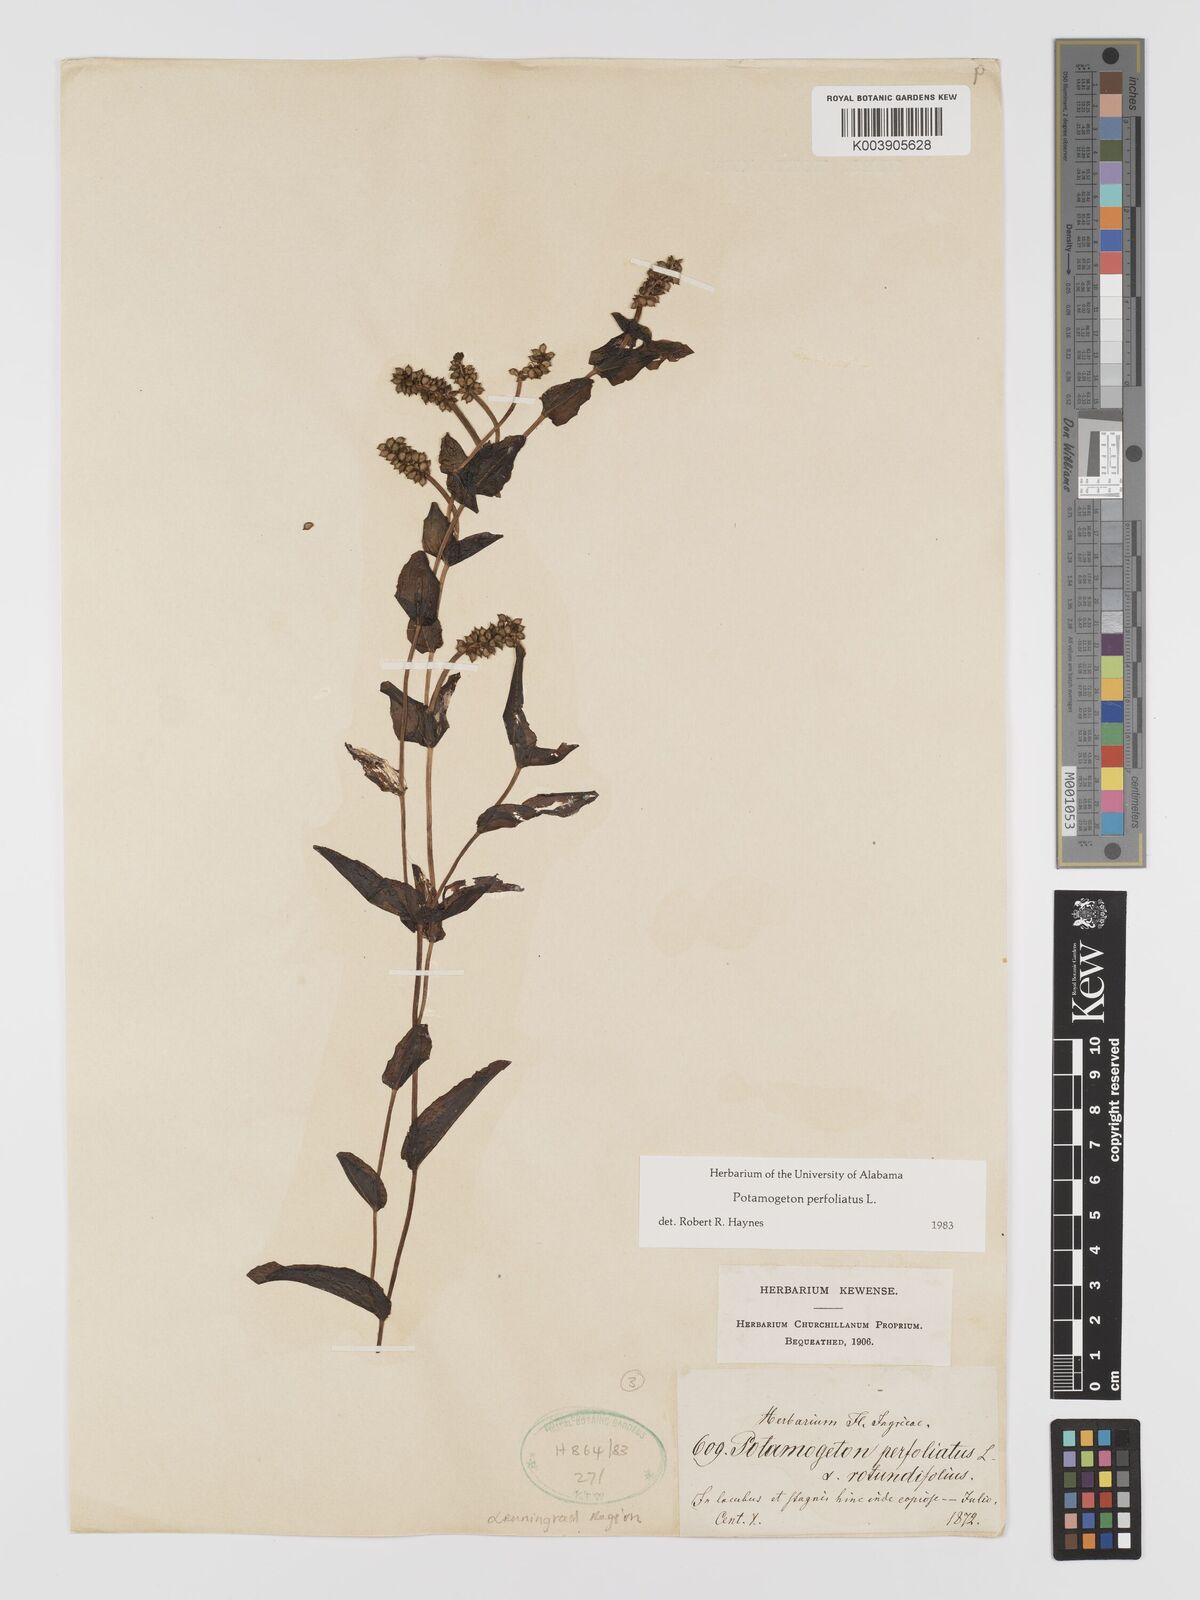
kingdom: Plantae
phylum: Tracheophyta
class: Liliopsida
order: Alismatales
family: Potamogetonaceae
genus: Potamogeton
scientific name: Potamogeton perfoliatus
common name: Perfoliate pondweed
